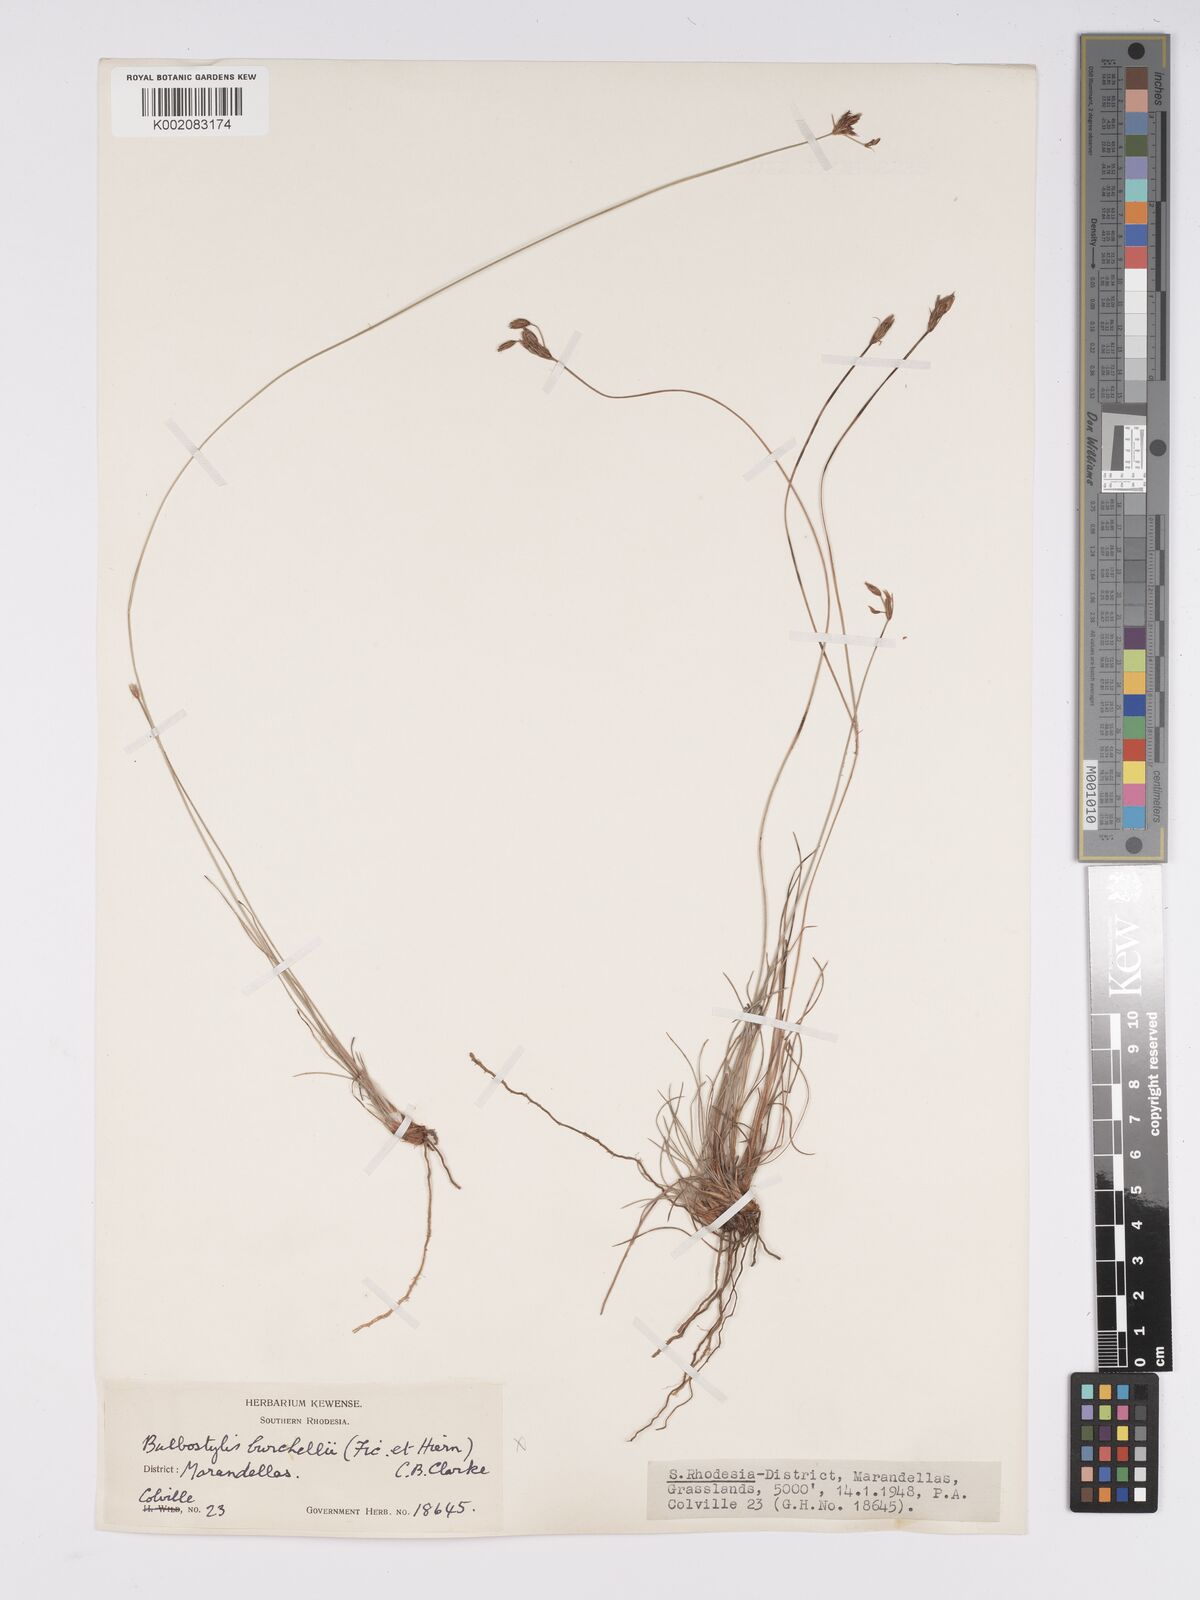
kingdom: Plantae
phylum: Tracheophyta
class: Liliopsida
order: Poales
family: Cyperaceae
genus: Bulbostylis
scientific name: Bulbostylis contexta
